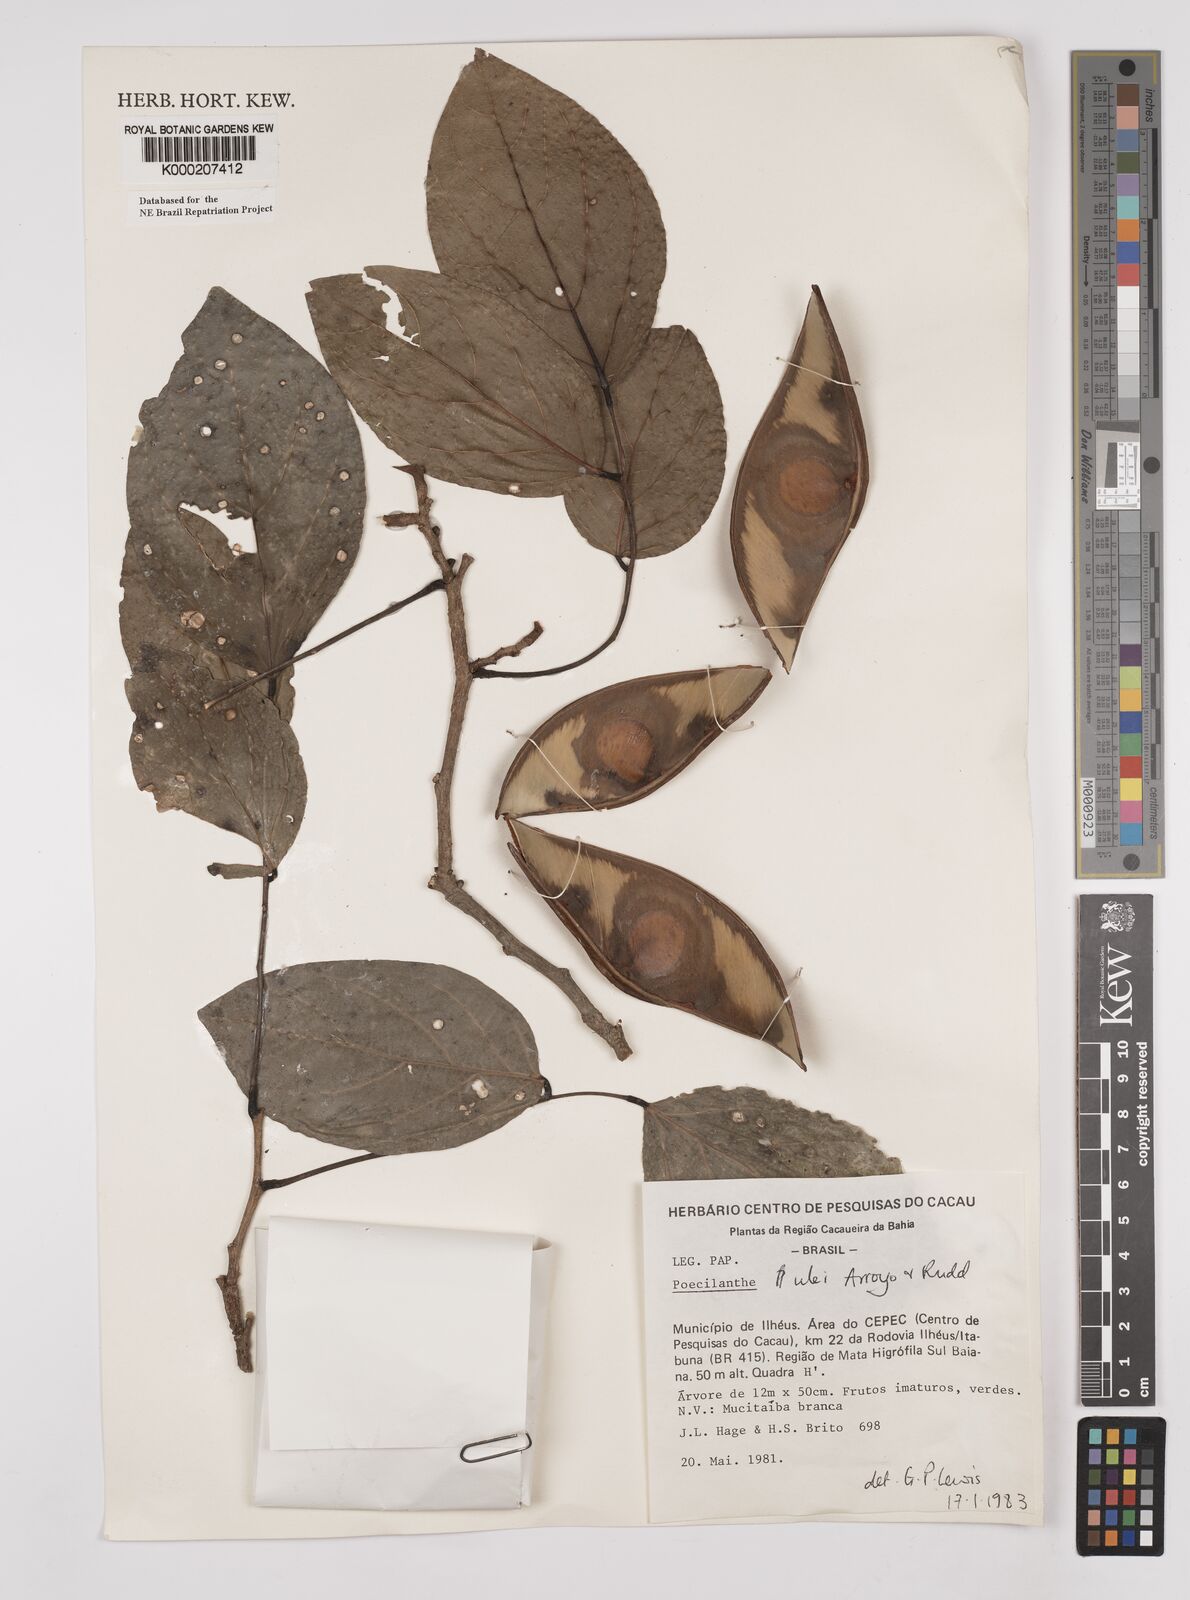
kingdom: Plantae
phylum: Tracheophyta
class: Magnoliopsida
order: Fabales
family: Fabaceae
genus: Poecilanthe
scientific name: Poecilanthe ulei
